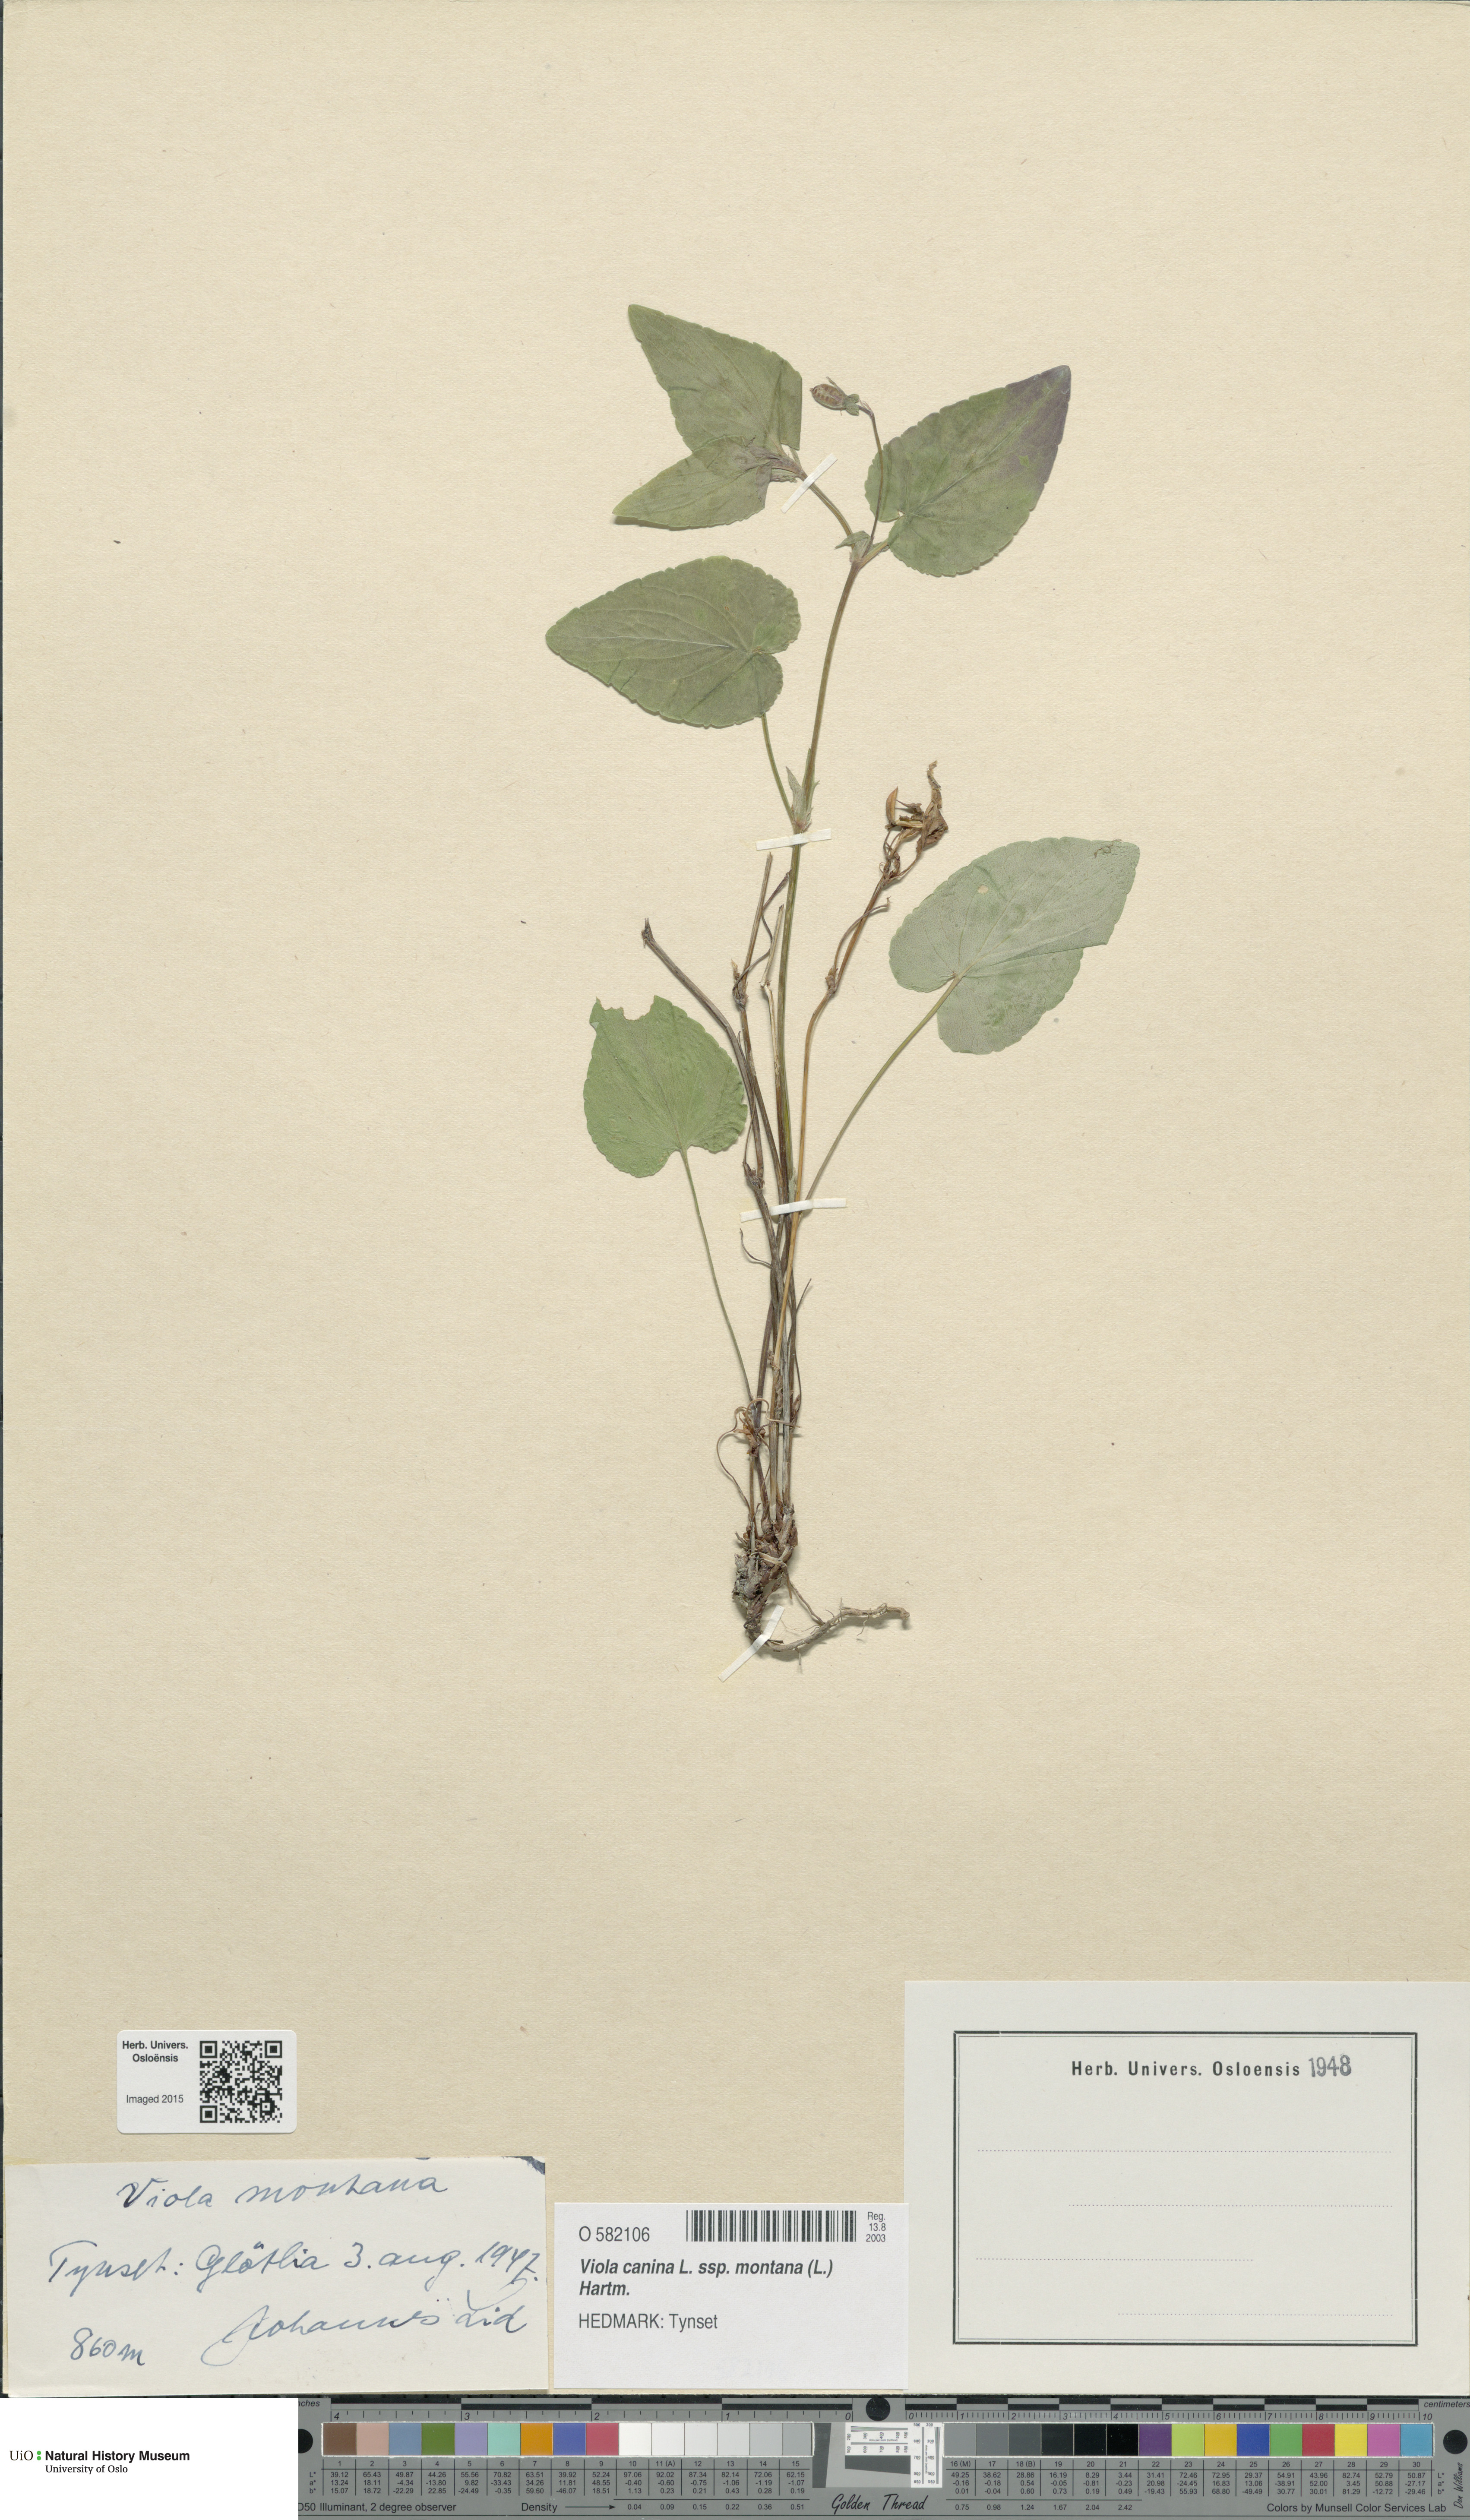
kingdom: Plantae
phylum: Tracheophyta
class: Magnoliopsida
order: Malpighiales
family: Violaceae
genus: Viola
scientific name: Viola ruppii
